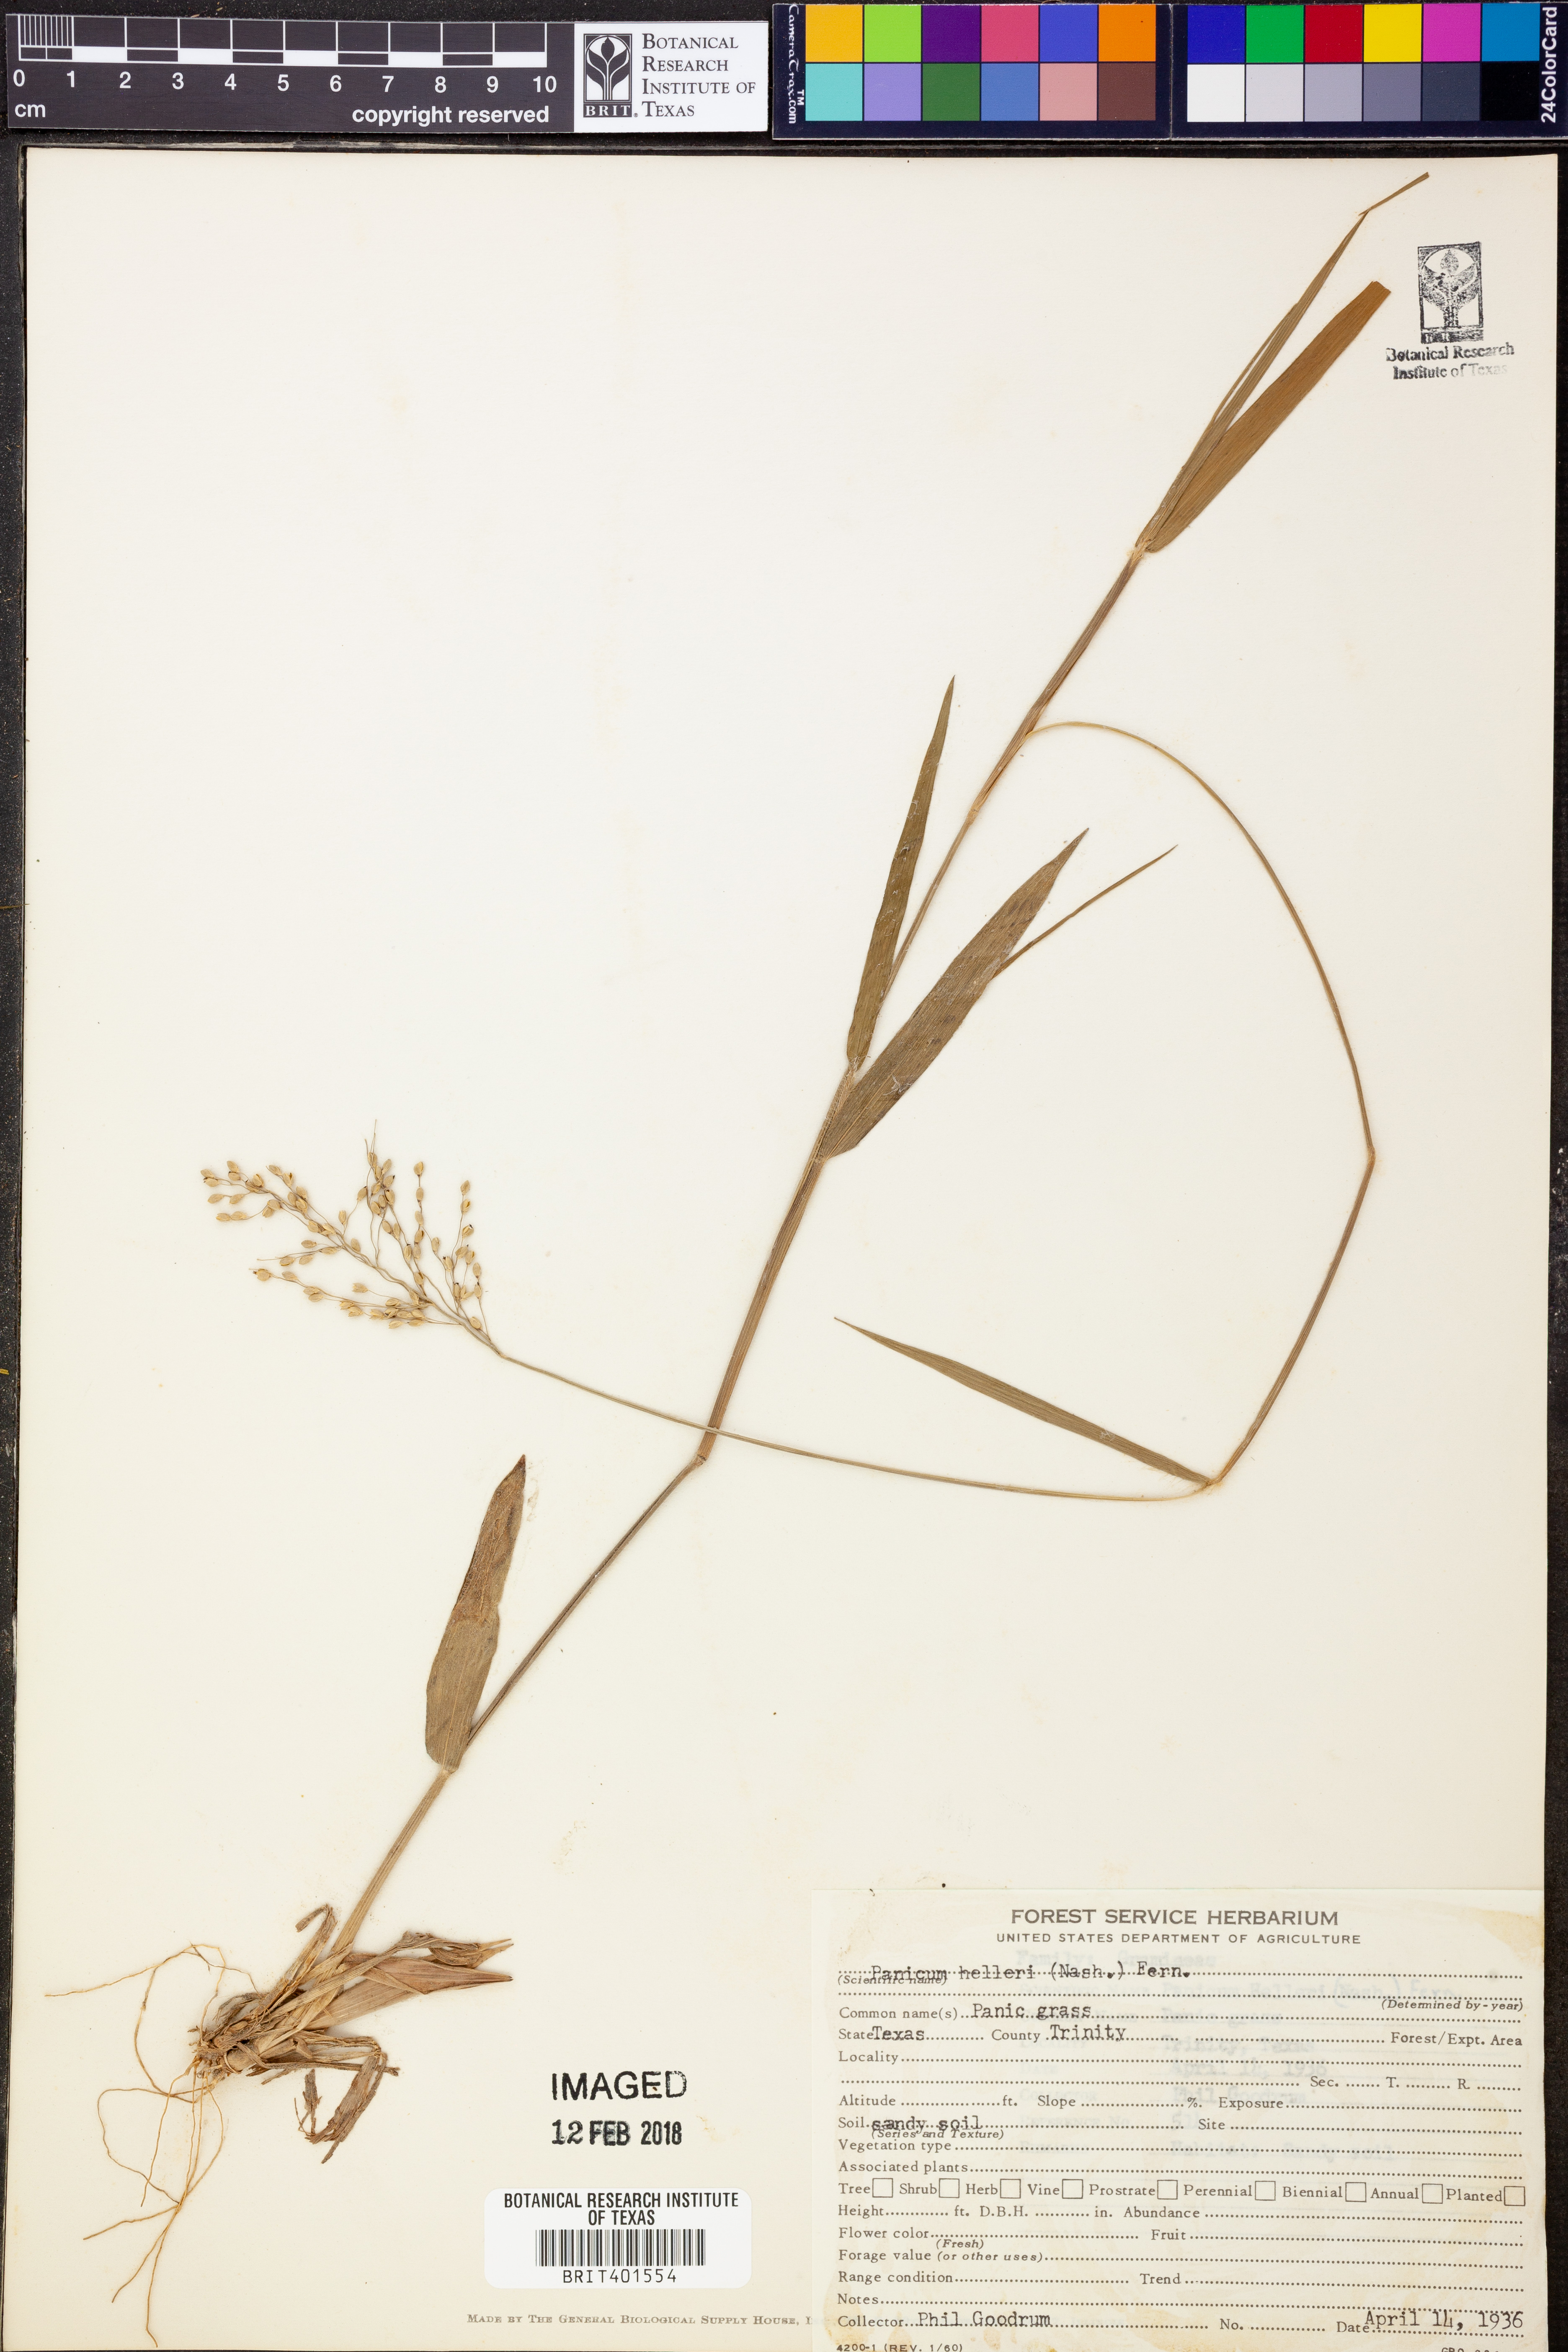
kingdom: Plantae
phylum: Tracheophyta
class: Liliopsida
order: Poales
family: Poaceae
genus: Dichanthelium
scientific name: Dichanthelium oligosanthes
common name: Few-anther obscuregrass
